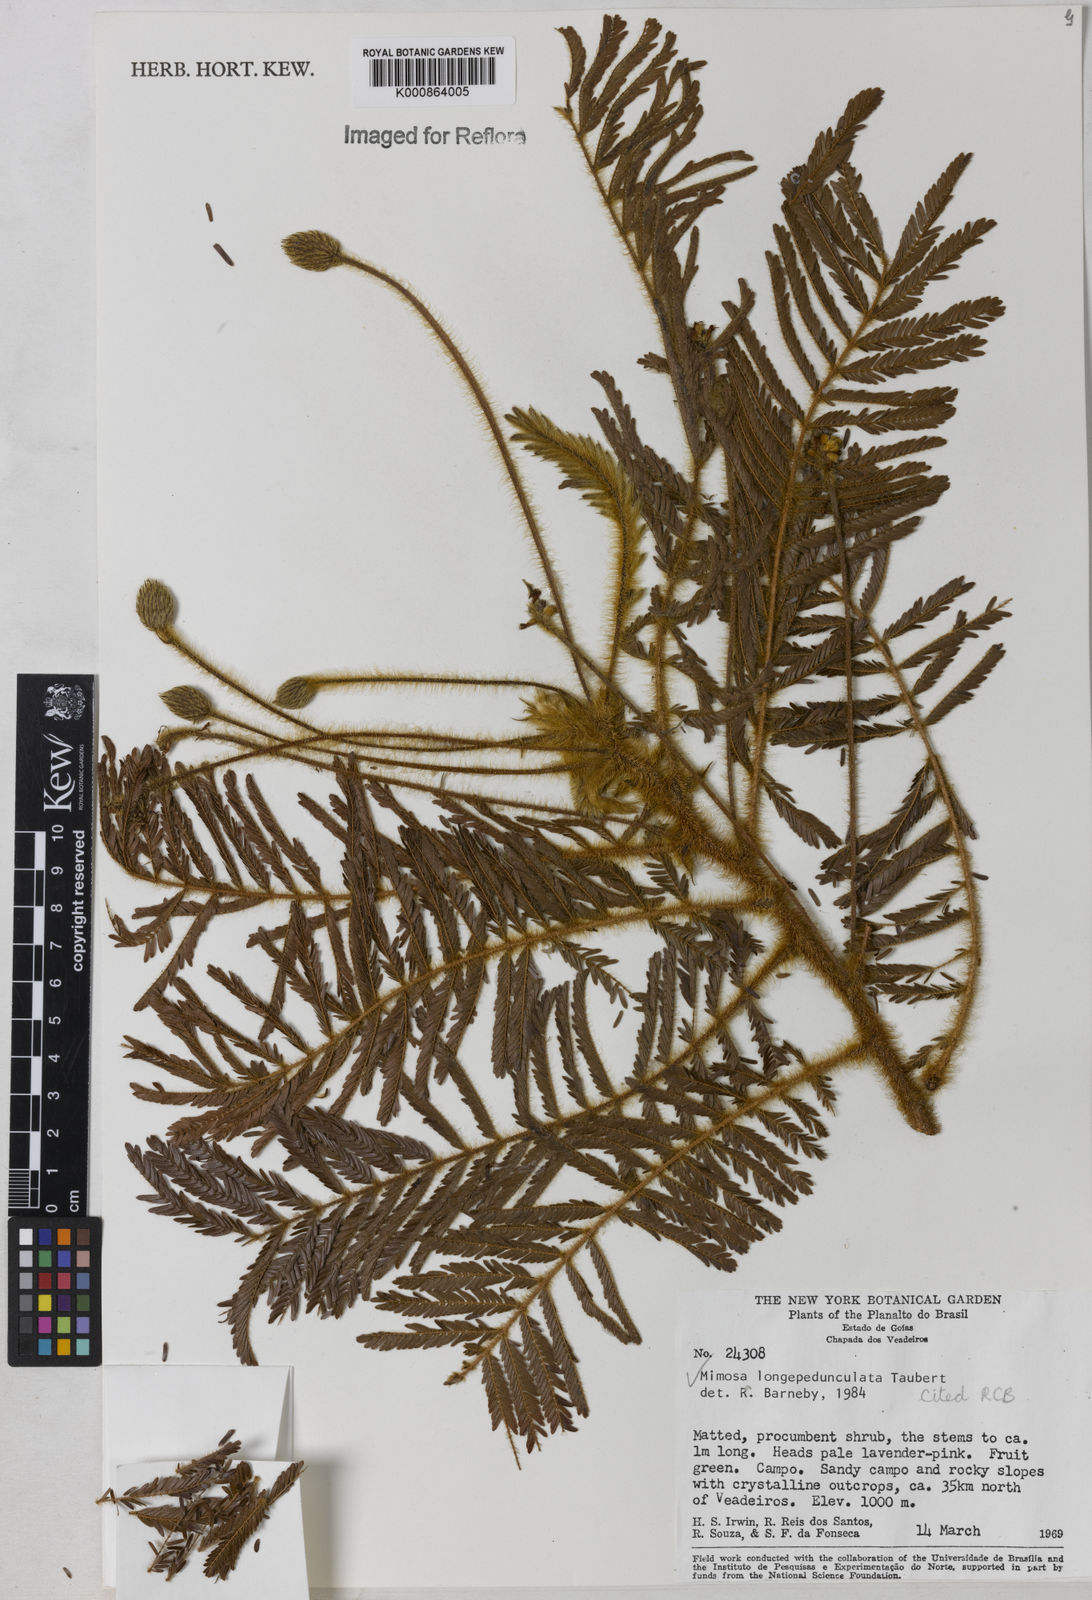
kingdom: Plantae
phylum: Tracheophyta
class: Magnoliopsida
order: Fabales
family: Fabaceae
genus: Mimosa
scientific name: Mimosa tocantina
